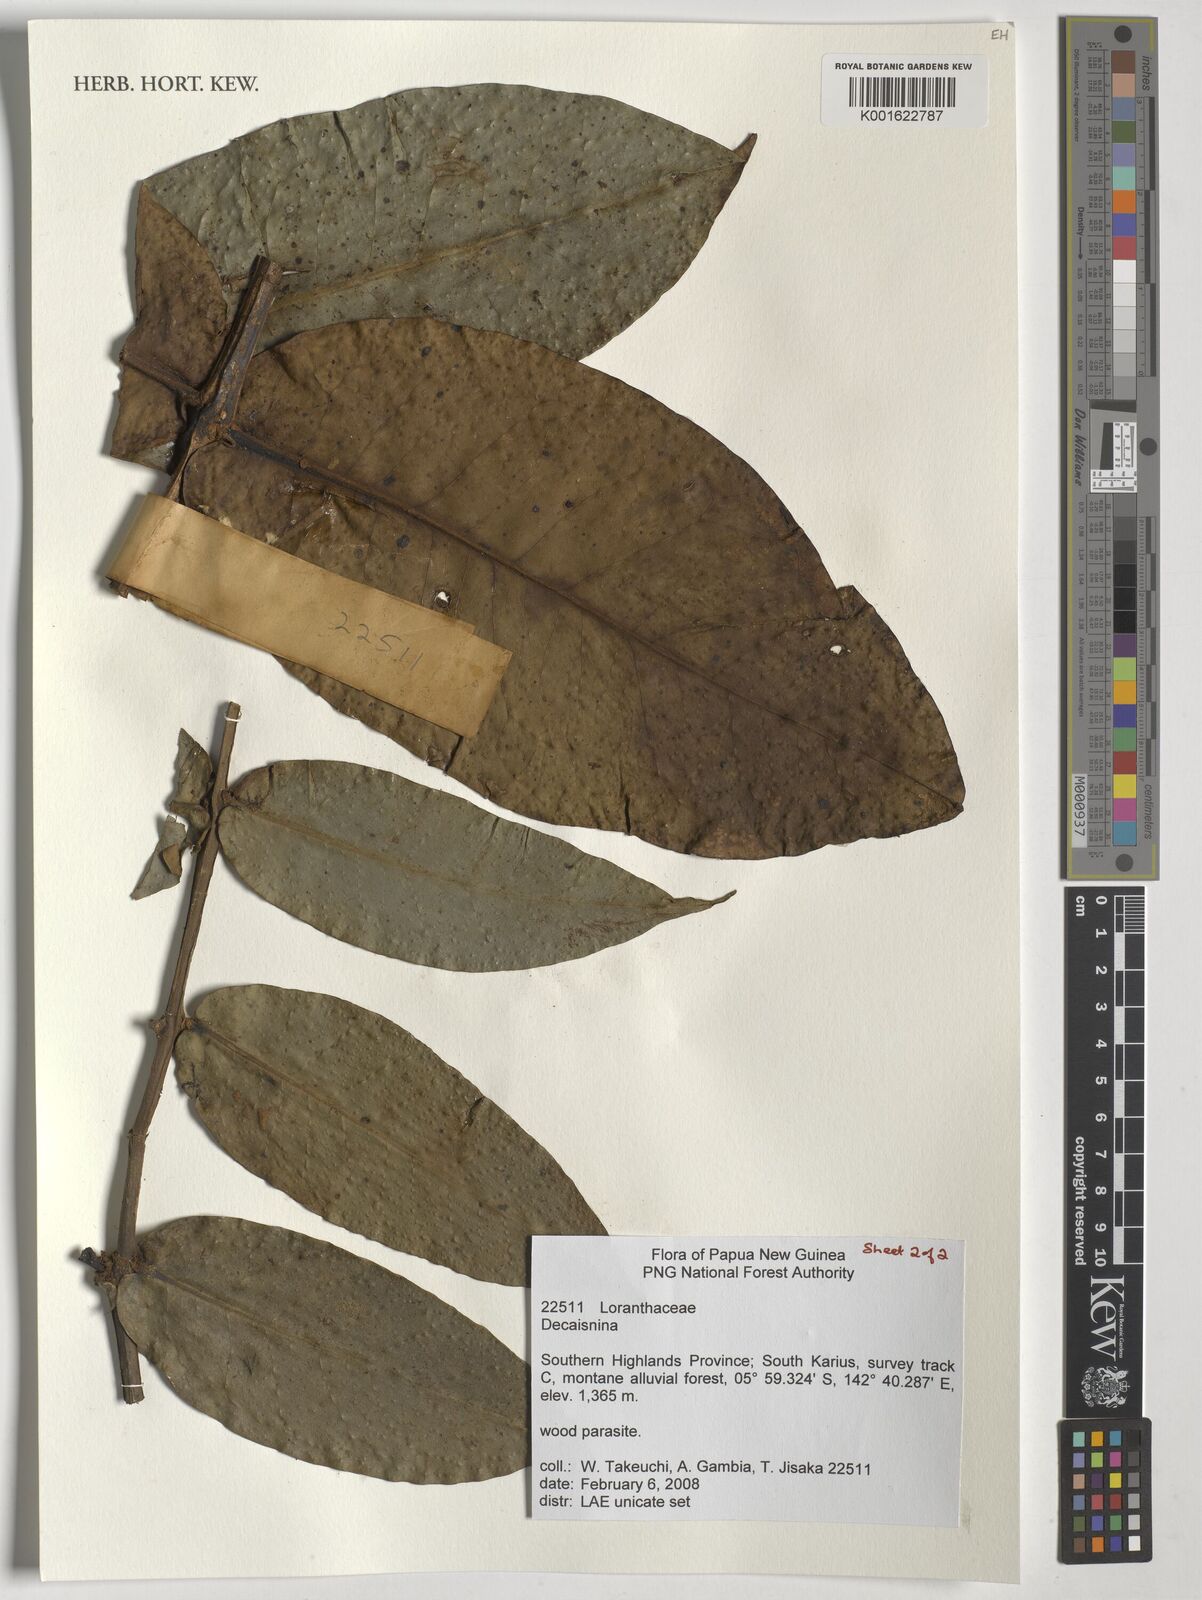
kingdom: Plantae
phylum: Tracheophyta
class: Magnoliopsida
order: Santalales
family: Loranthaceae
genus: Decaisnina
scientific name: Decaisnina
